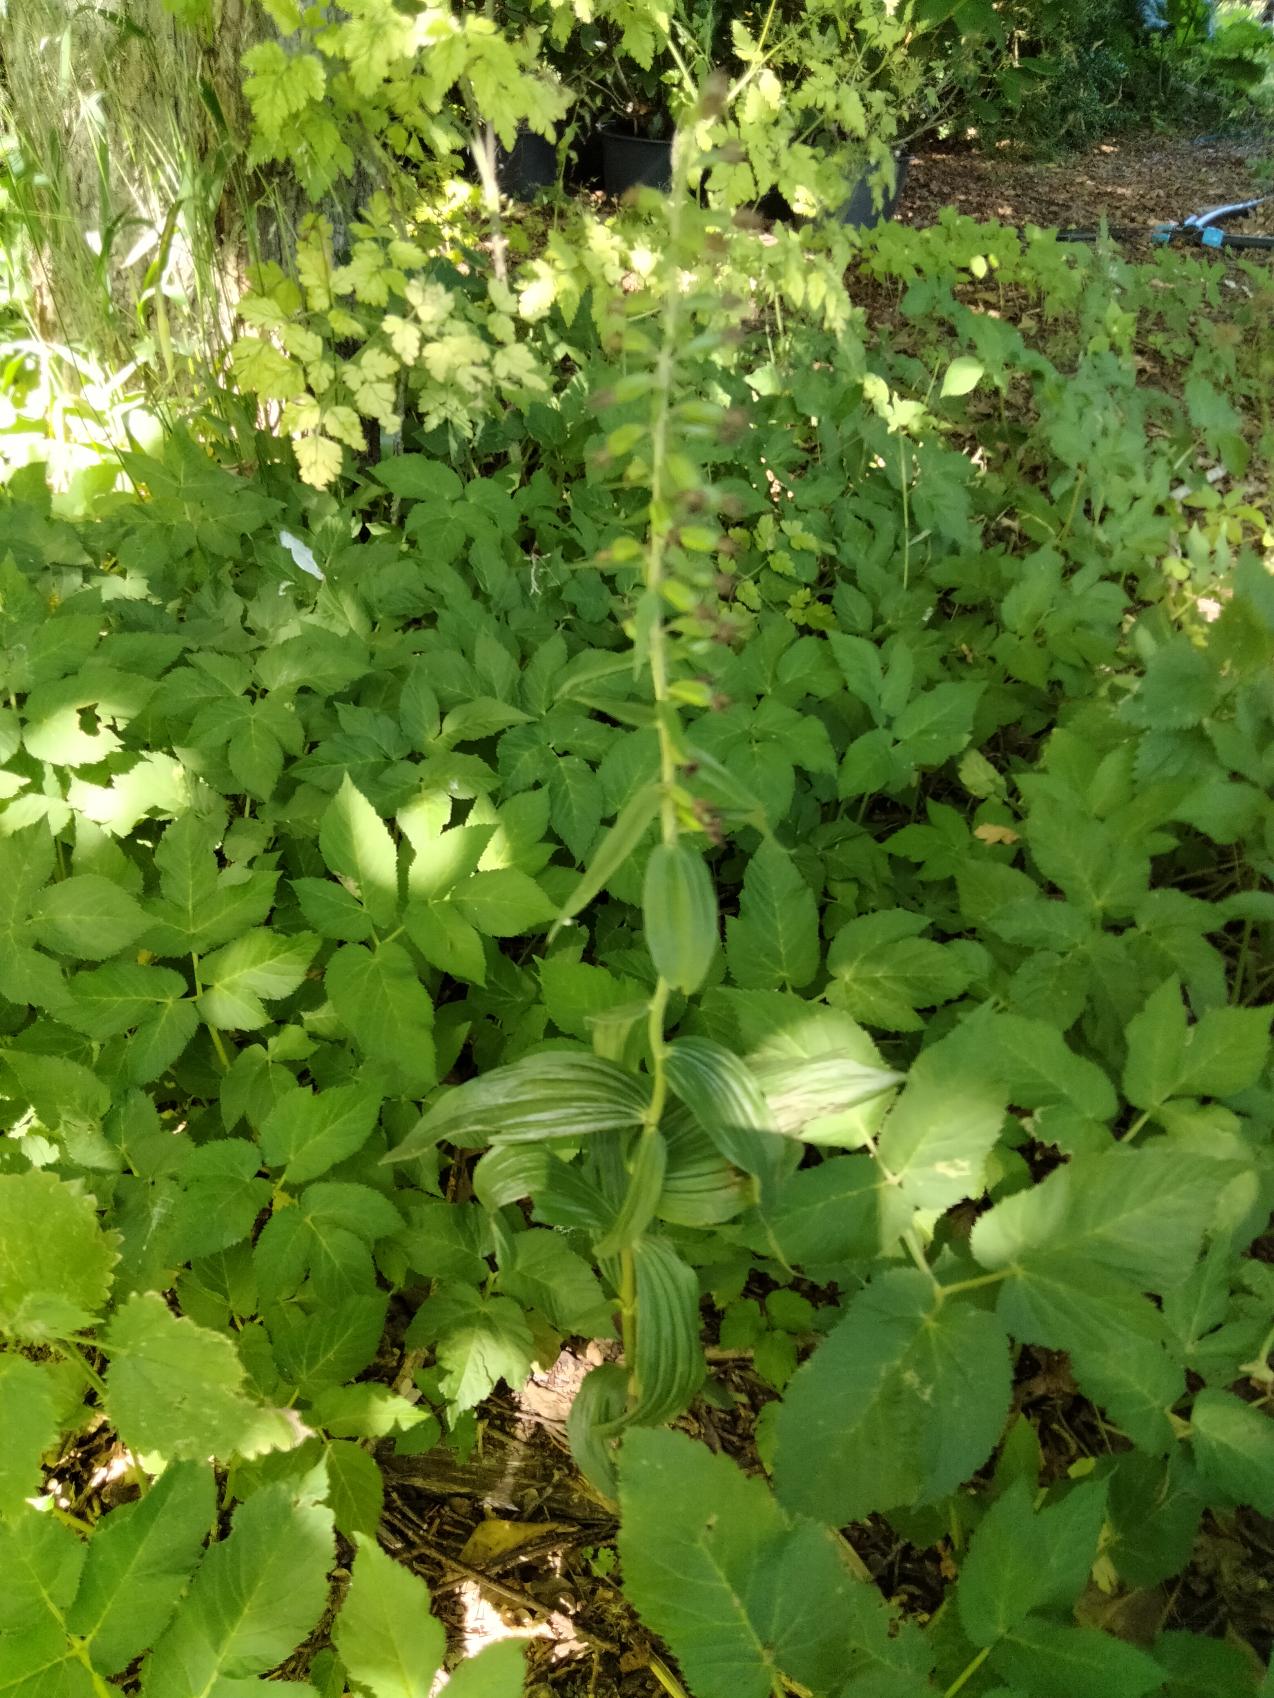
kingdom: Plantae
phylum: Tracheophyta
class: Liliopsida
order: Asparagales
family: Orchidaceae
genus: Epipactis
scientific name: Epipactis helleborine
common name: Skov-hullæbe
